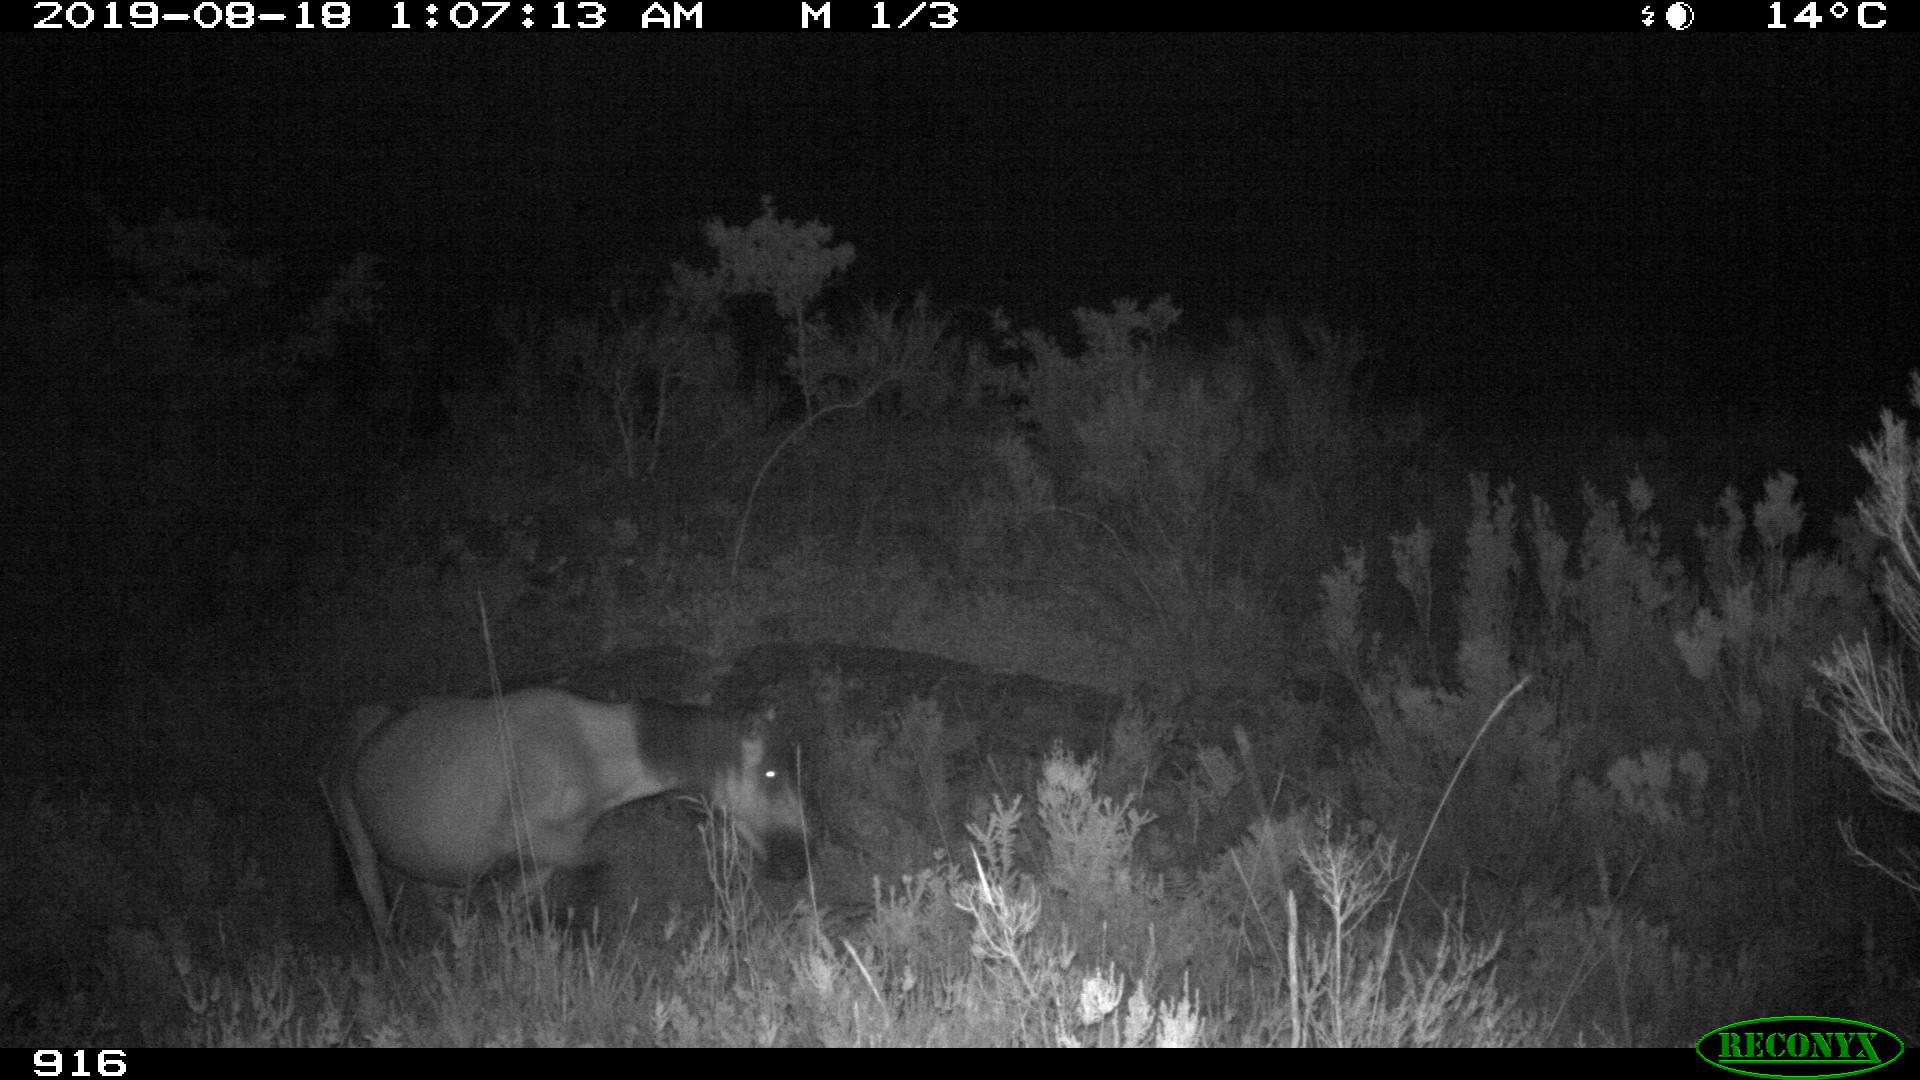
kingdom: Animalia
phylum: Chordata
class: Mammalia
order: Perissodactyla
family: Equidae
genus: Equus
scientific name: Equus caballus
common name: Horse
